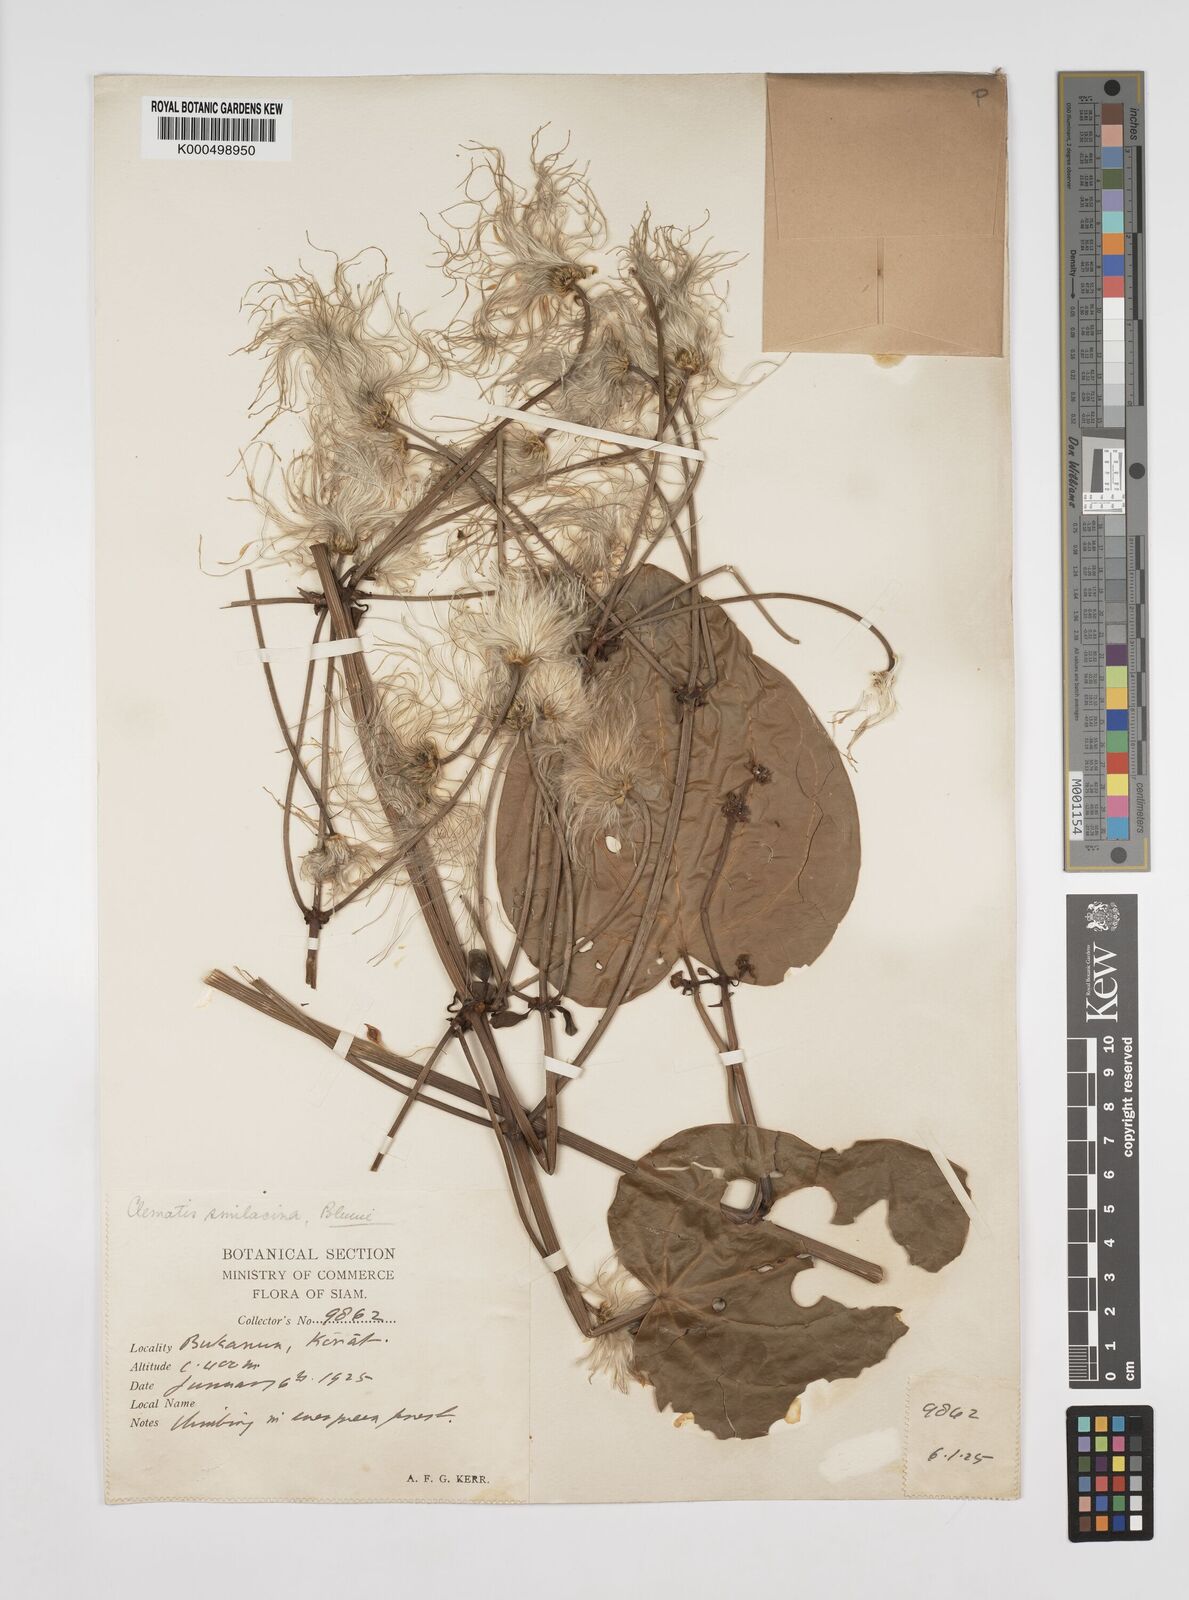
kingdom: Plantae
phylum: Tracheophyta
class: Magnoliopsida
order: Ranunculales
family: Ranunculaceae
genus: Clematis
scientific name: Clematis
